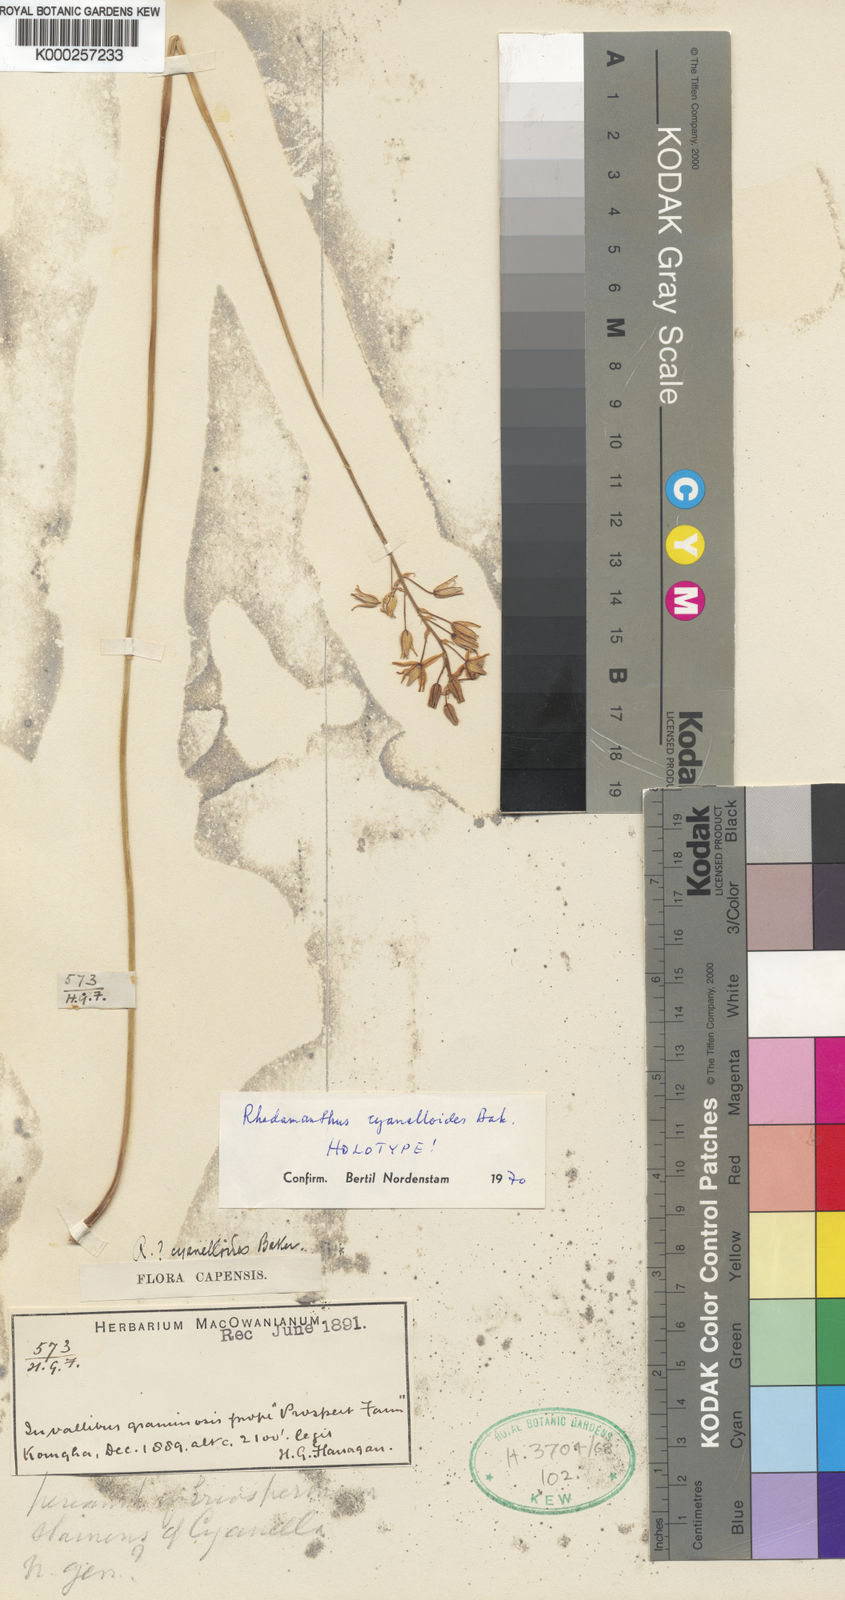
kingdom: Plantae
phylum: Tracheophyta
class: Liliopsida
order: Asparagales
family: Asparagaceae
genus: Drimia
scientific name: Drimia cyanelloides
